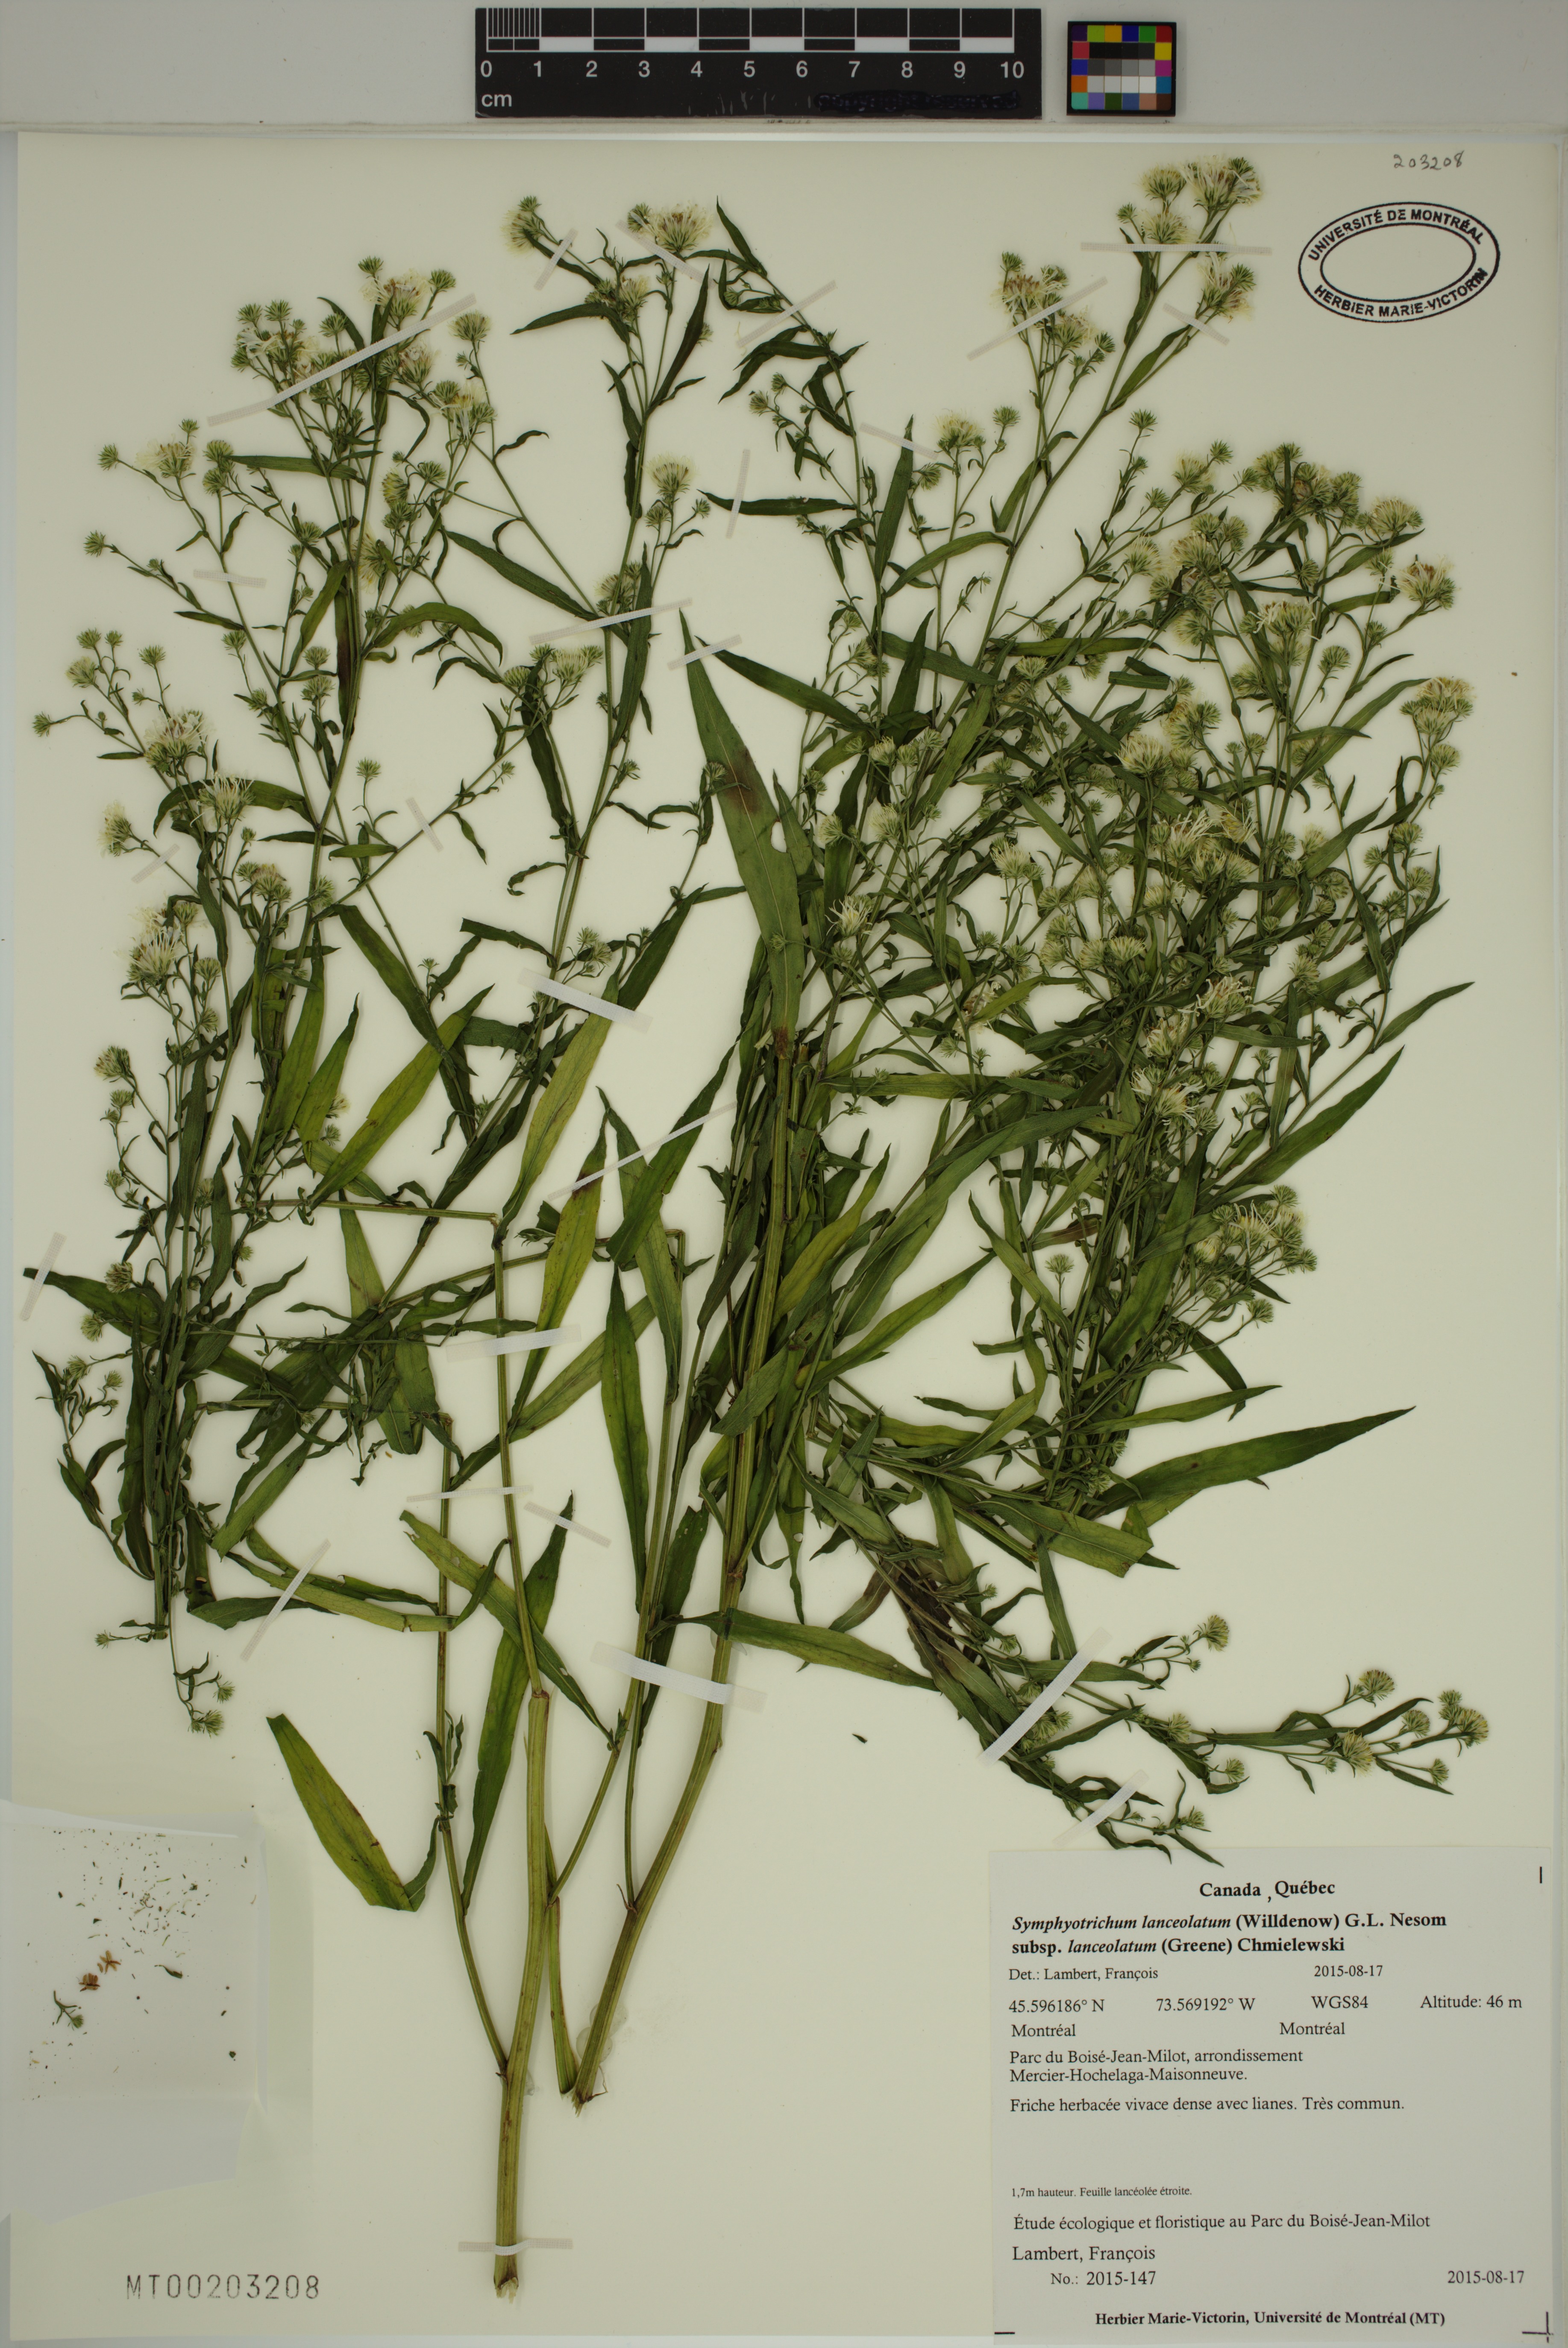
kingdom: Plantae
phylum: Tracheophyta
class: Magnoliopsida
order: Asterales
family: Asteraceae
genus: Symphyotrichum
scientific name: Symphyotrichum lanceolatum
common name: Panicled aster
